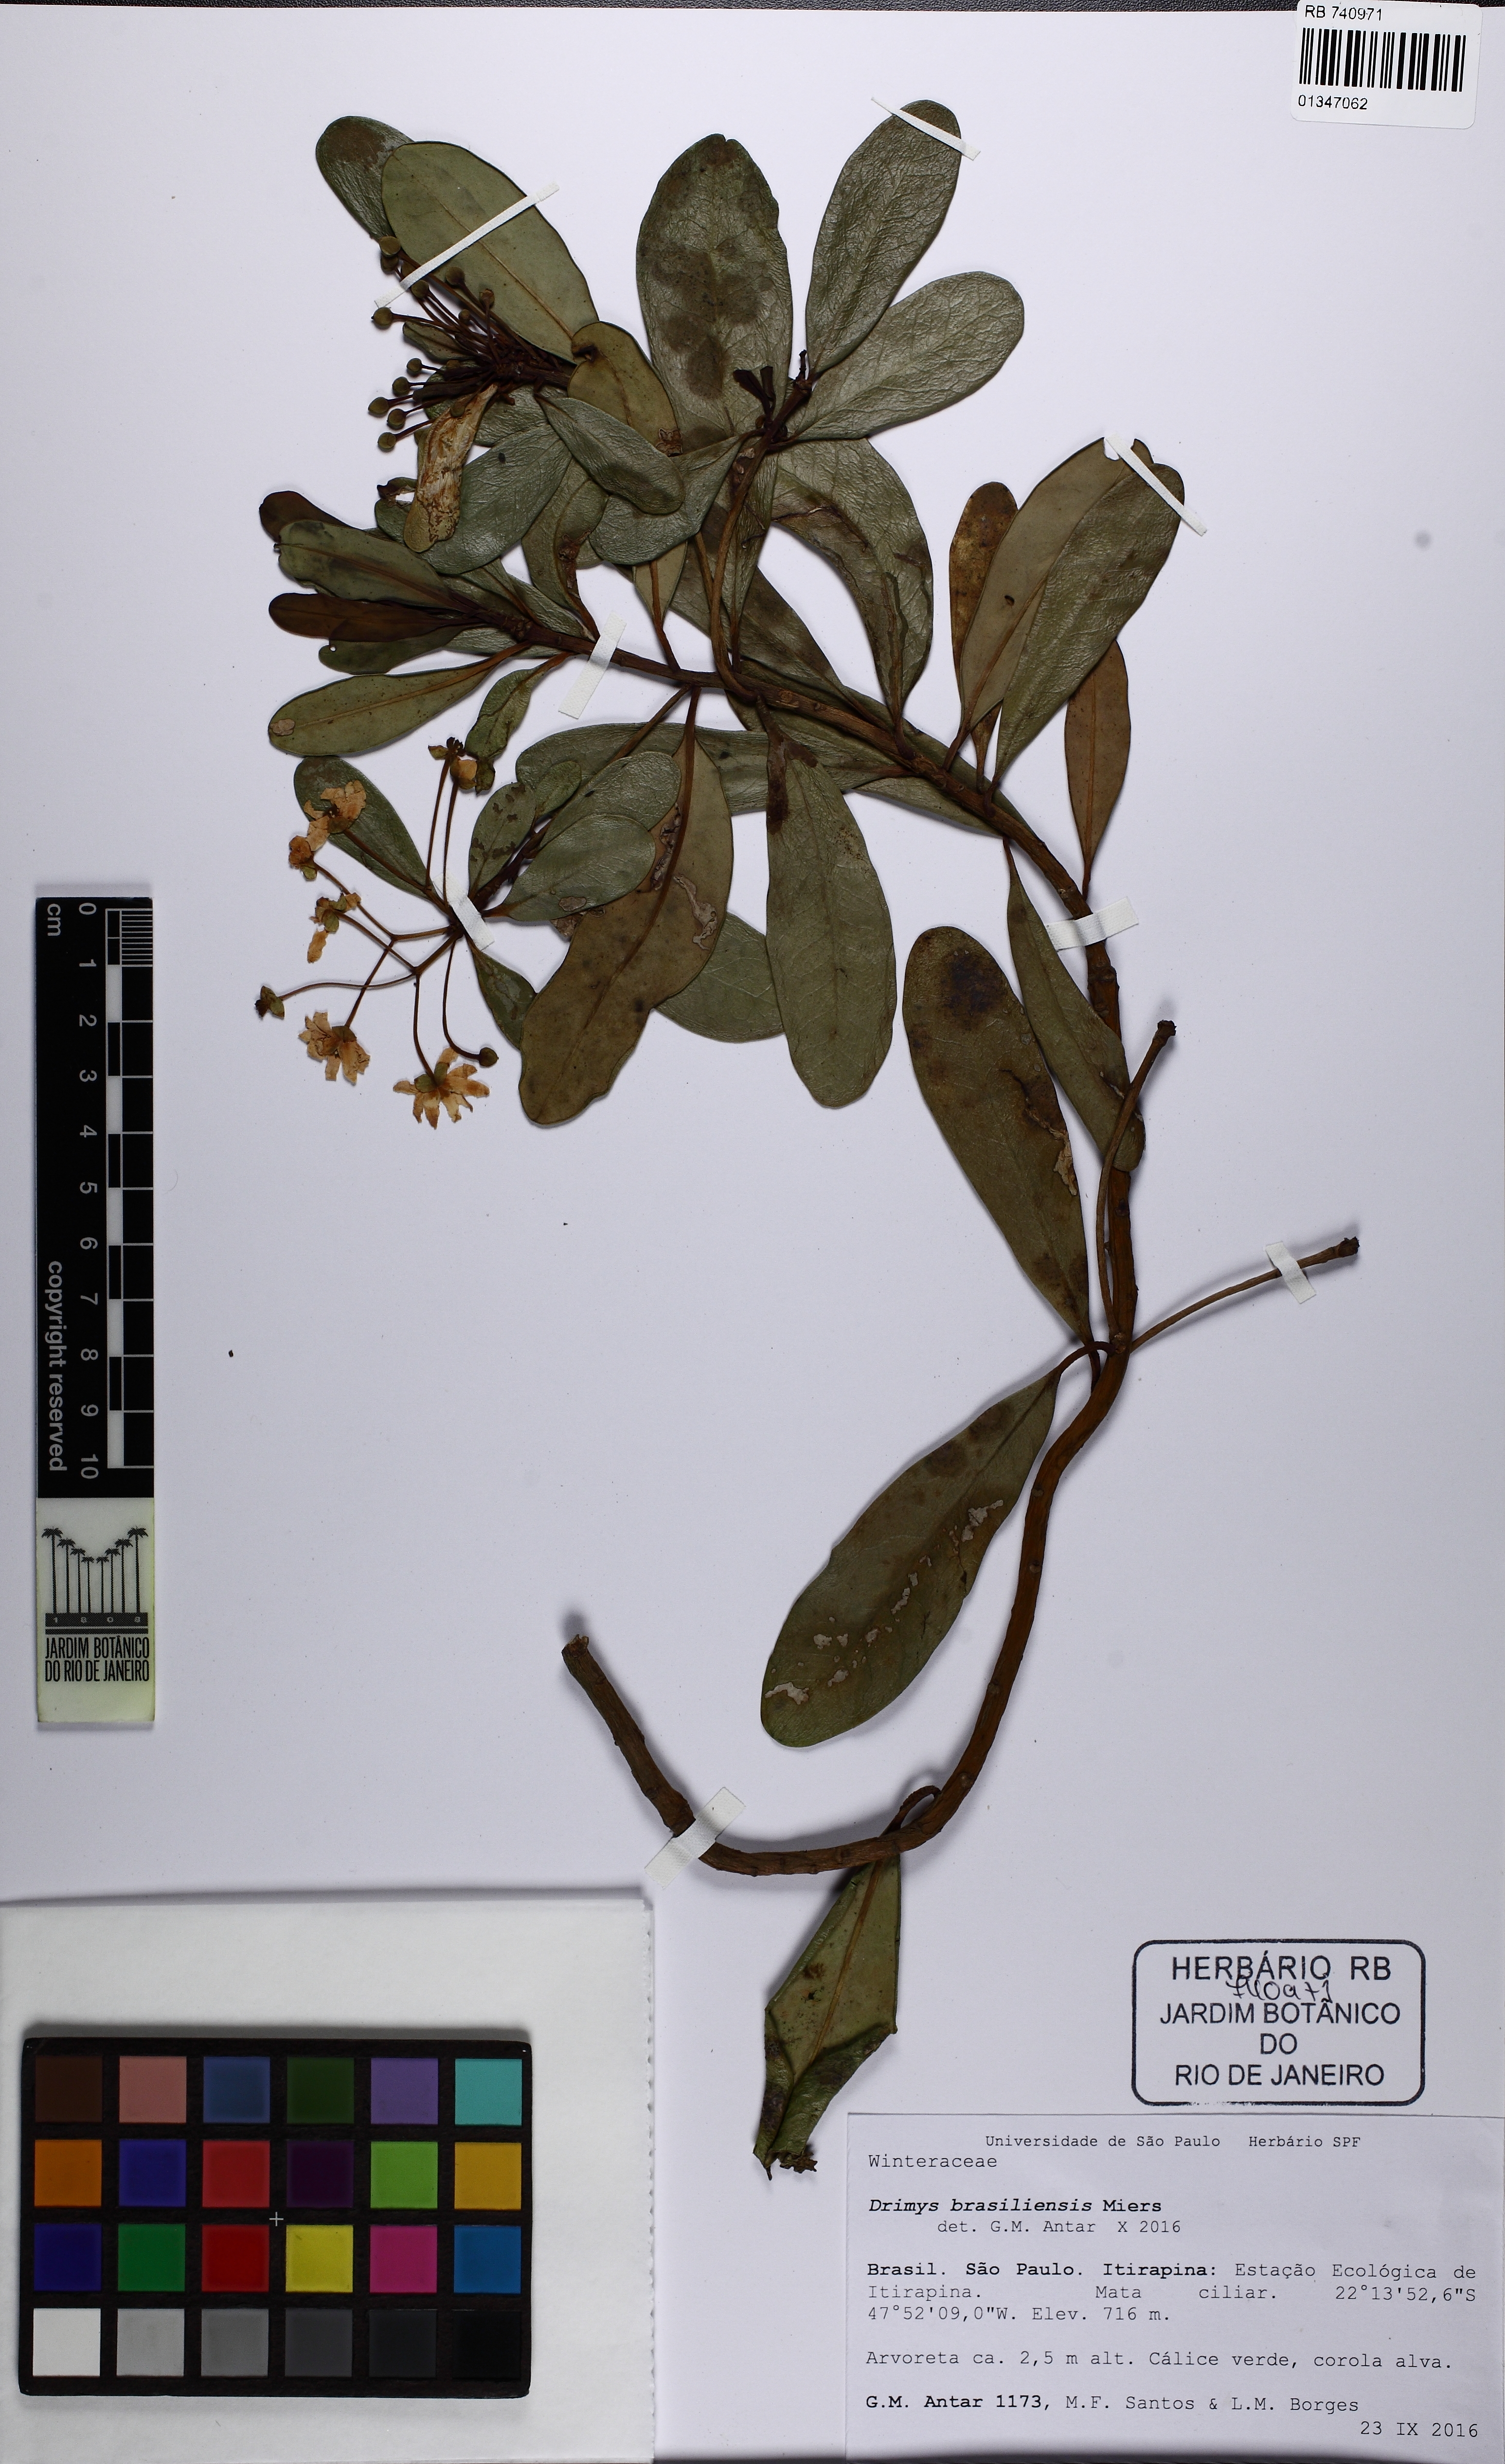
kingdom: Plantae
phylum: Tracheophyta
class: Magnoliopsida
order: Canellales
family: Winteraceae
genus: Drimys
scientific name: Drimys brasiliensis
